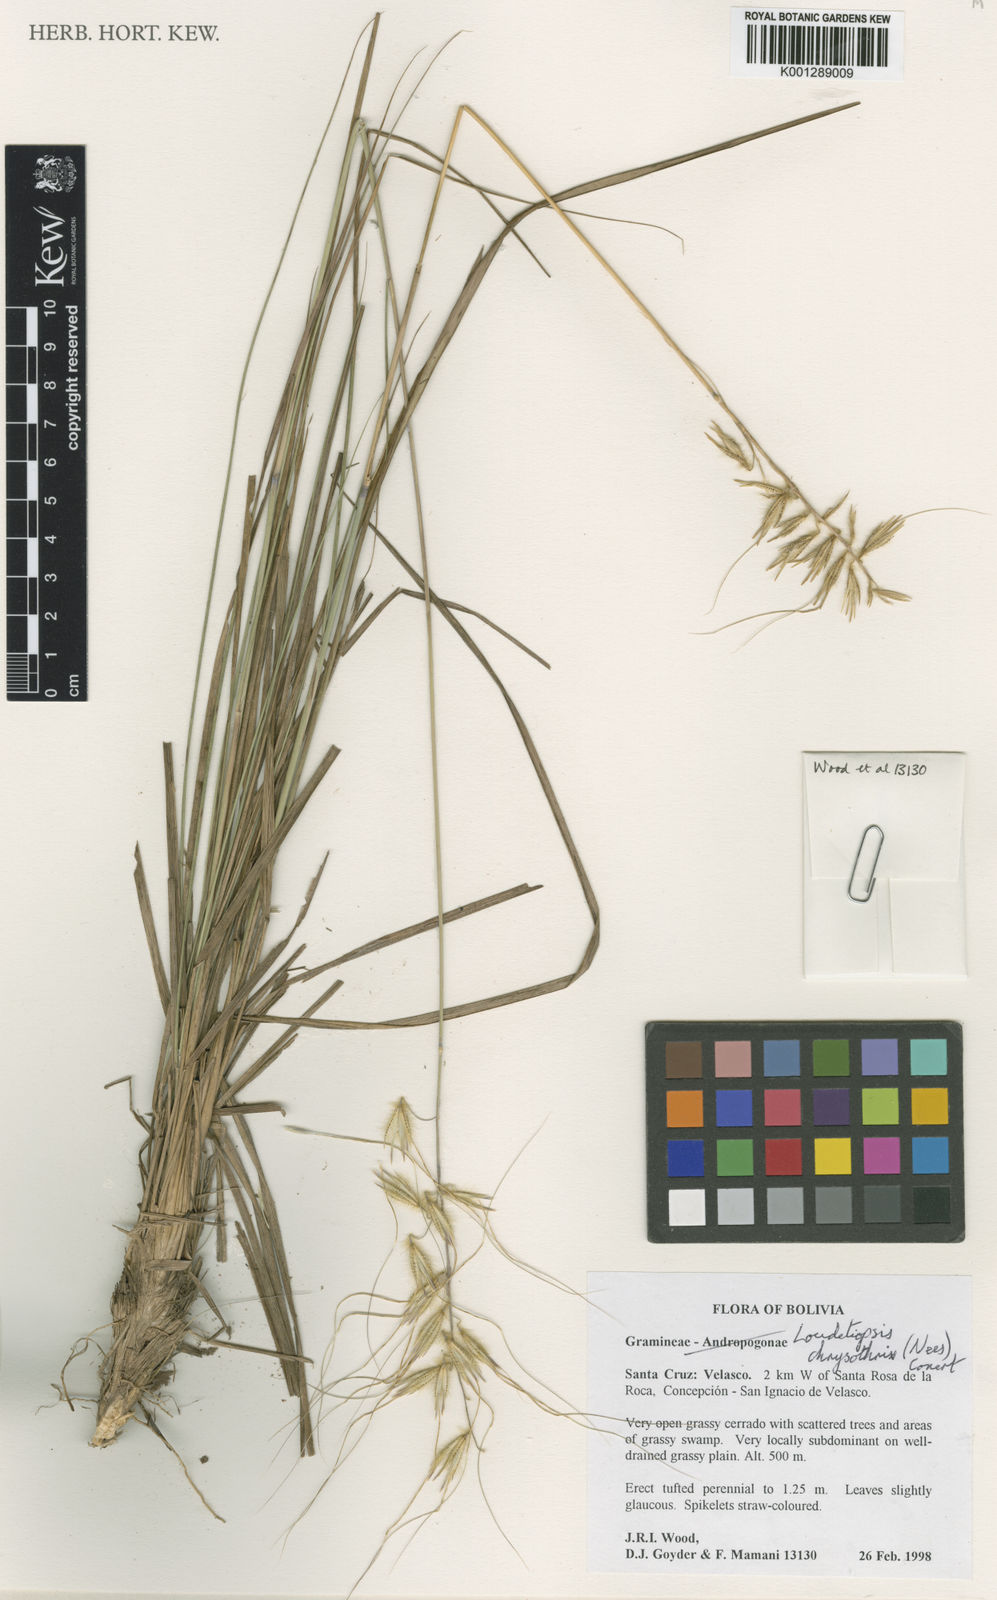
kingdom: Plantae
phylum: Tracheophyta
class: Liliopsida
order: Poales
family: Poaceae
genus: Loudetiopsis
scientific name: Loudetiopsis chrysothrix
